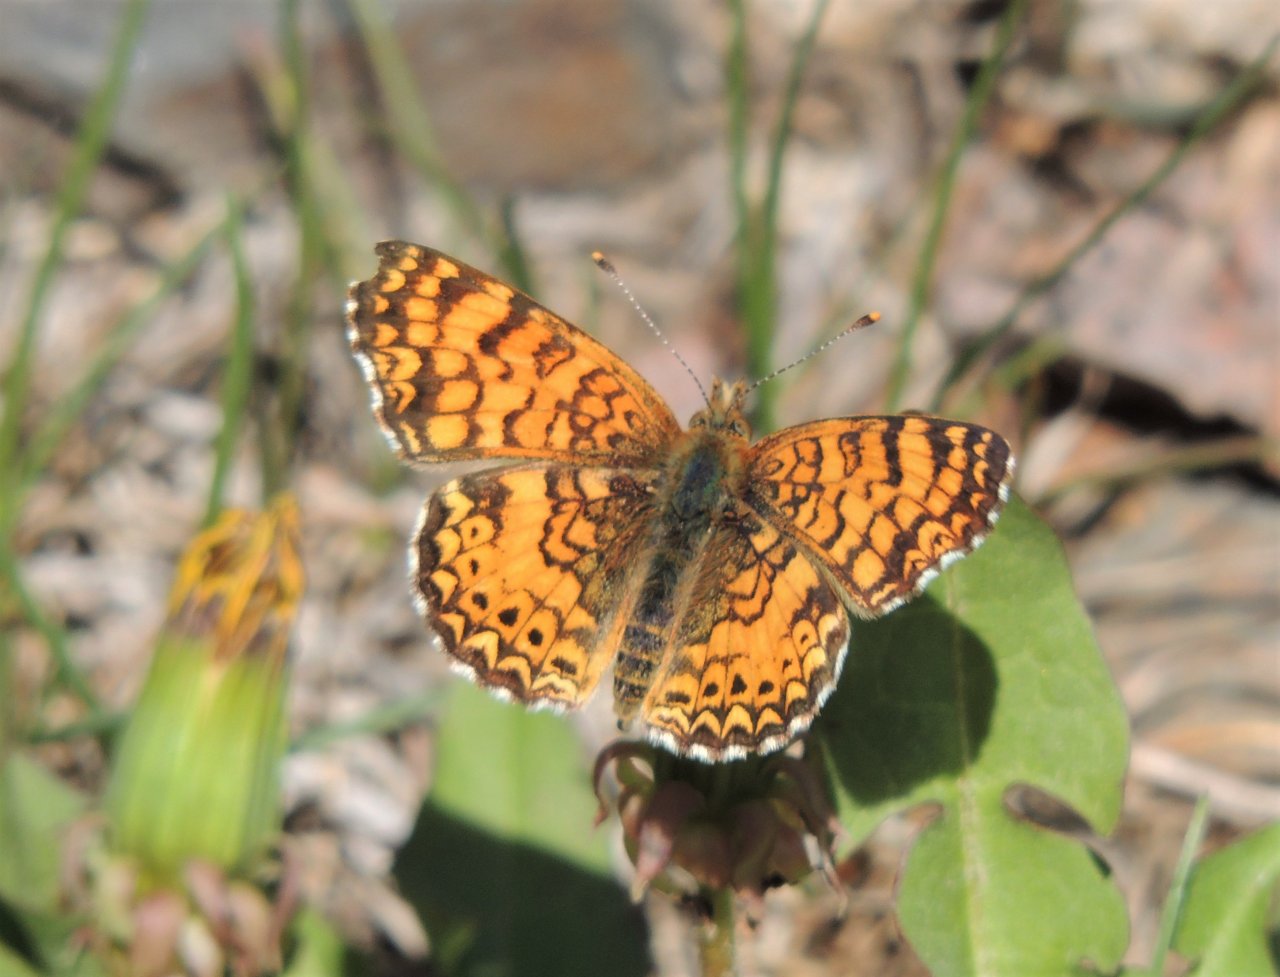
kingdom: Animalia
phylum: Arthropoda
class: Insecta
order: Lepidoptera
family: Nymphalidae
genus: Eresia
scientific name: Eresia aveyrona
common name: Mylitta Crescent
